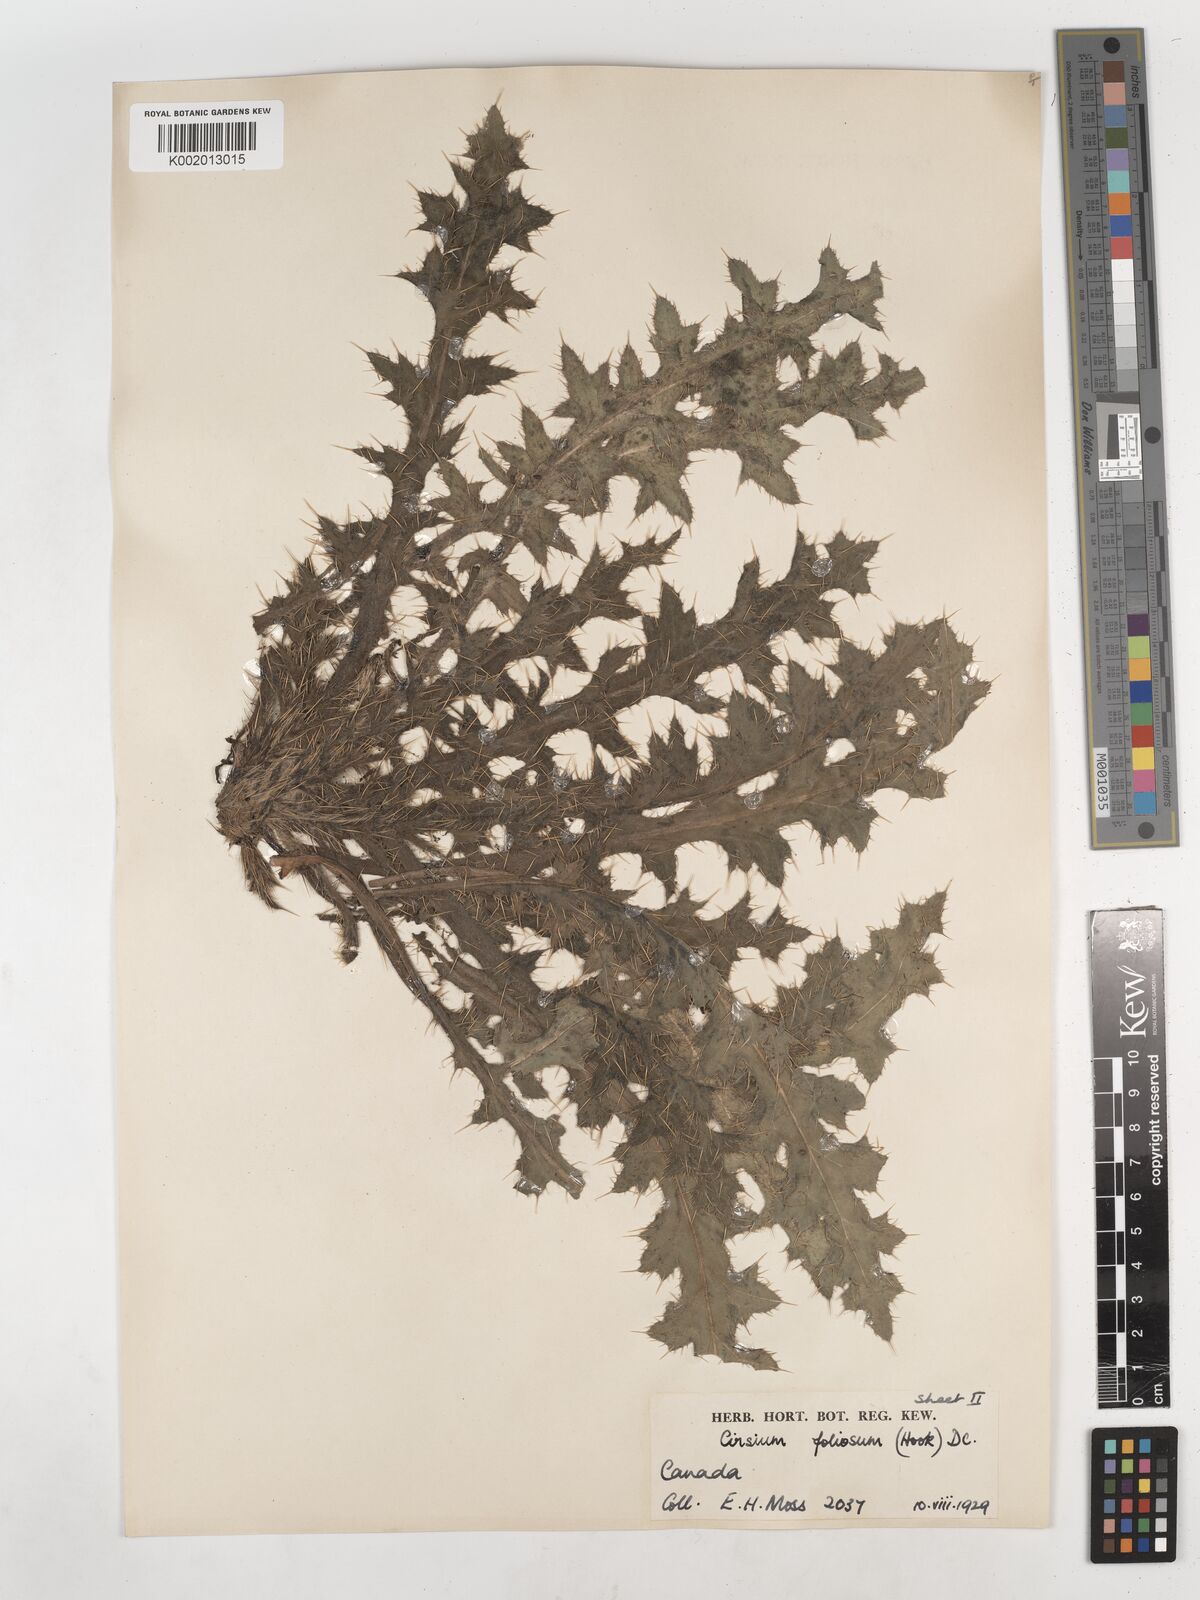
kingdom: Plantae
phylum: Tracheophyta
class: Magnoliopsida
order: Asterales
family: Asteraceae
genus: Cirsium
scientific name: Cirsium foliosum
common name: Elk thistle
